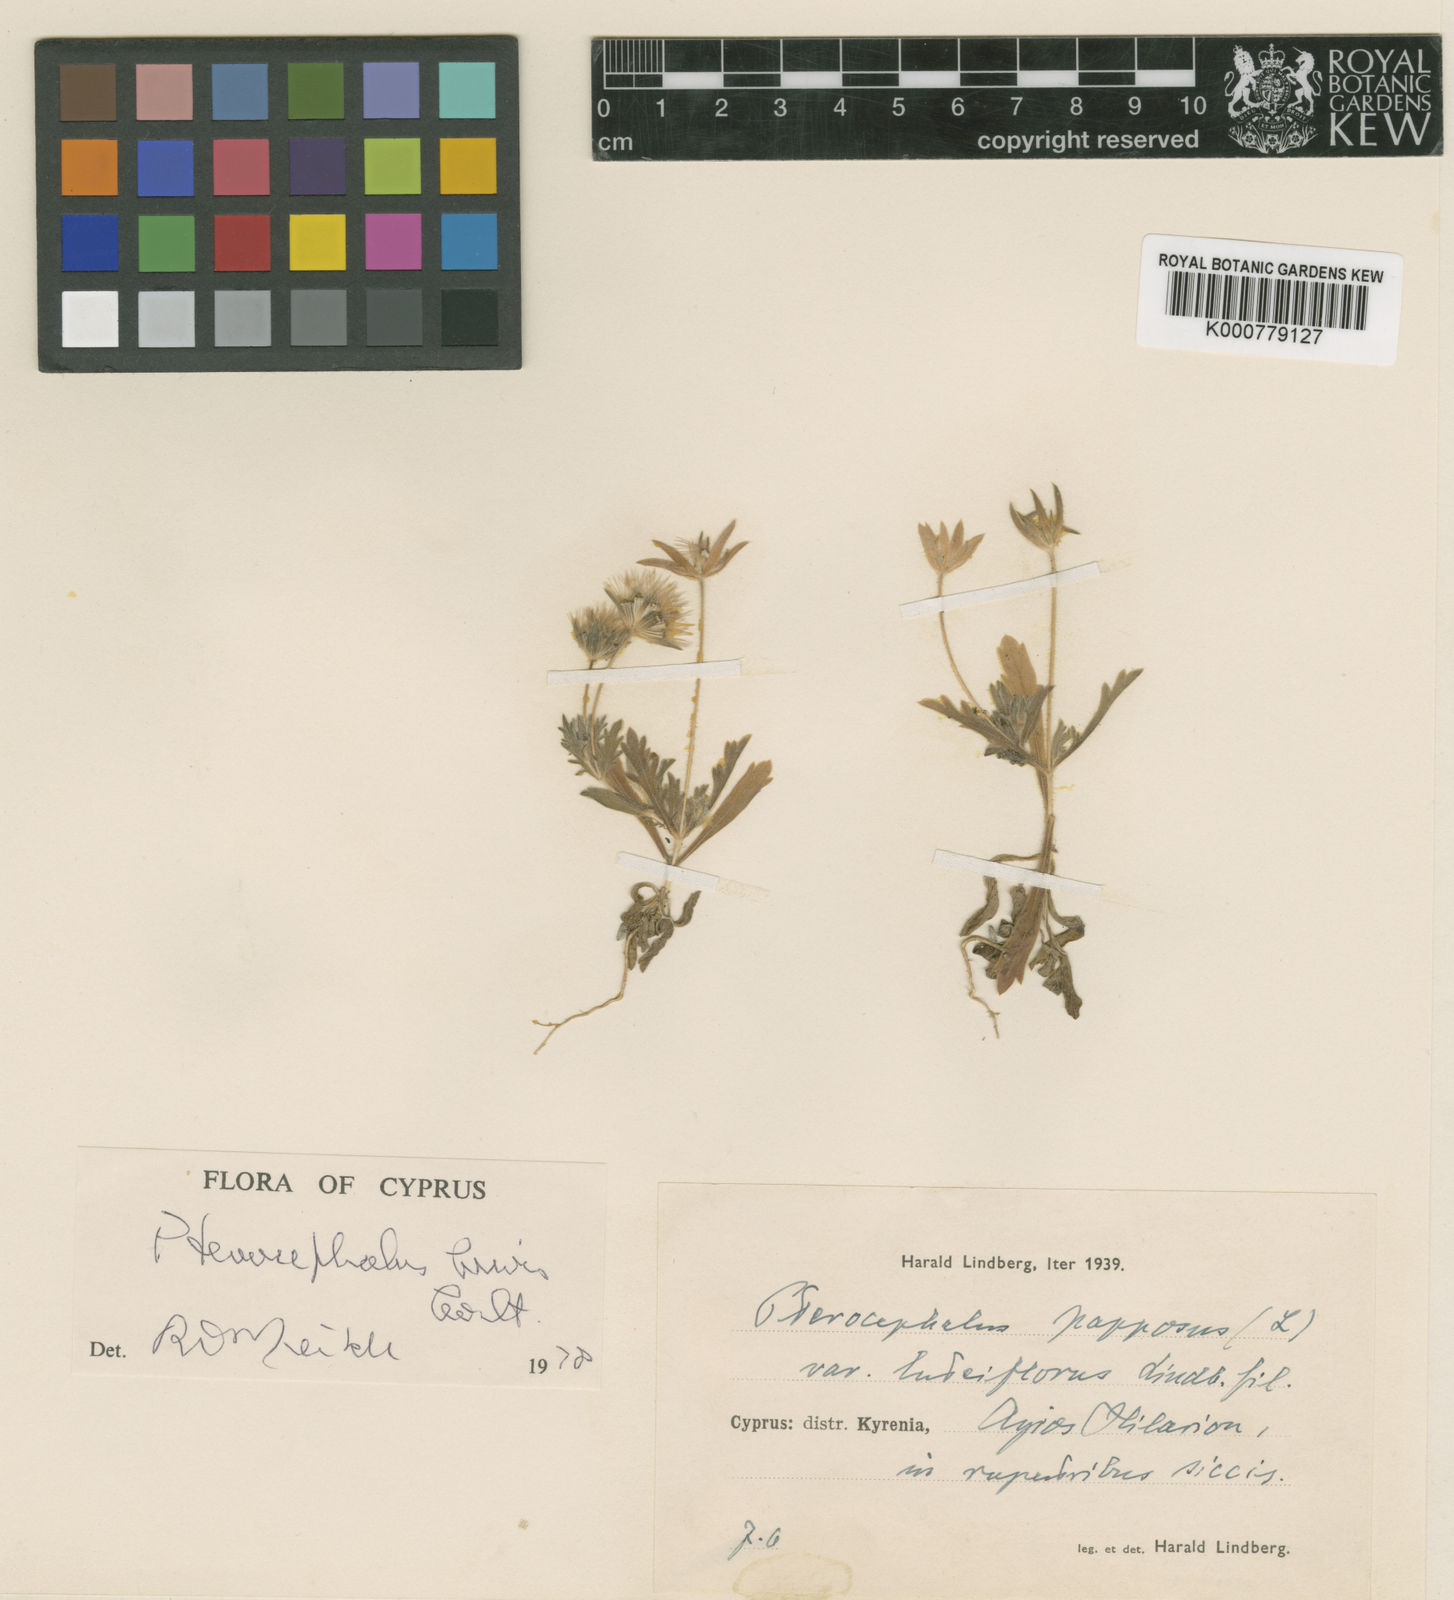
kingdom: Plantae
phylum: Tracheophyta
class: Magnoliopsida
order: Dipsacales
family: Caprifoliaceae
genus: Pterocephalus
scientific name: Pterocephalus brevis
